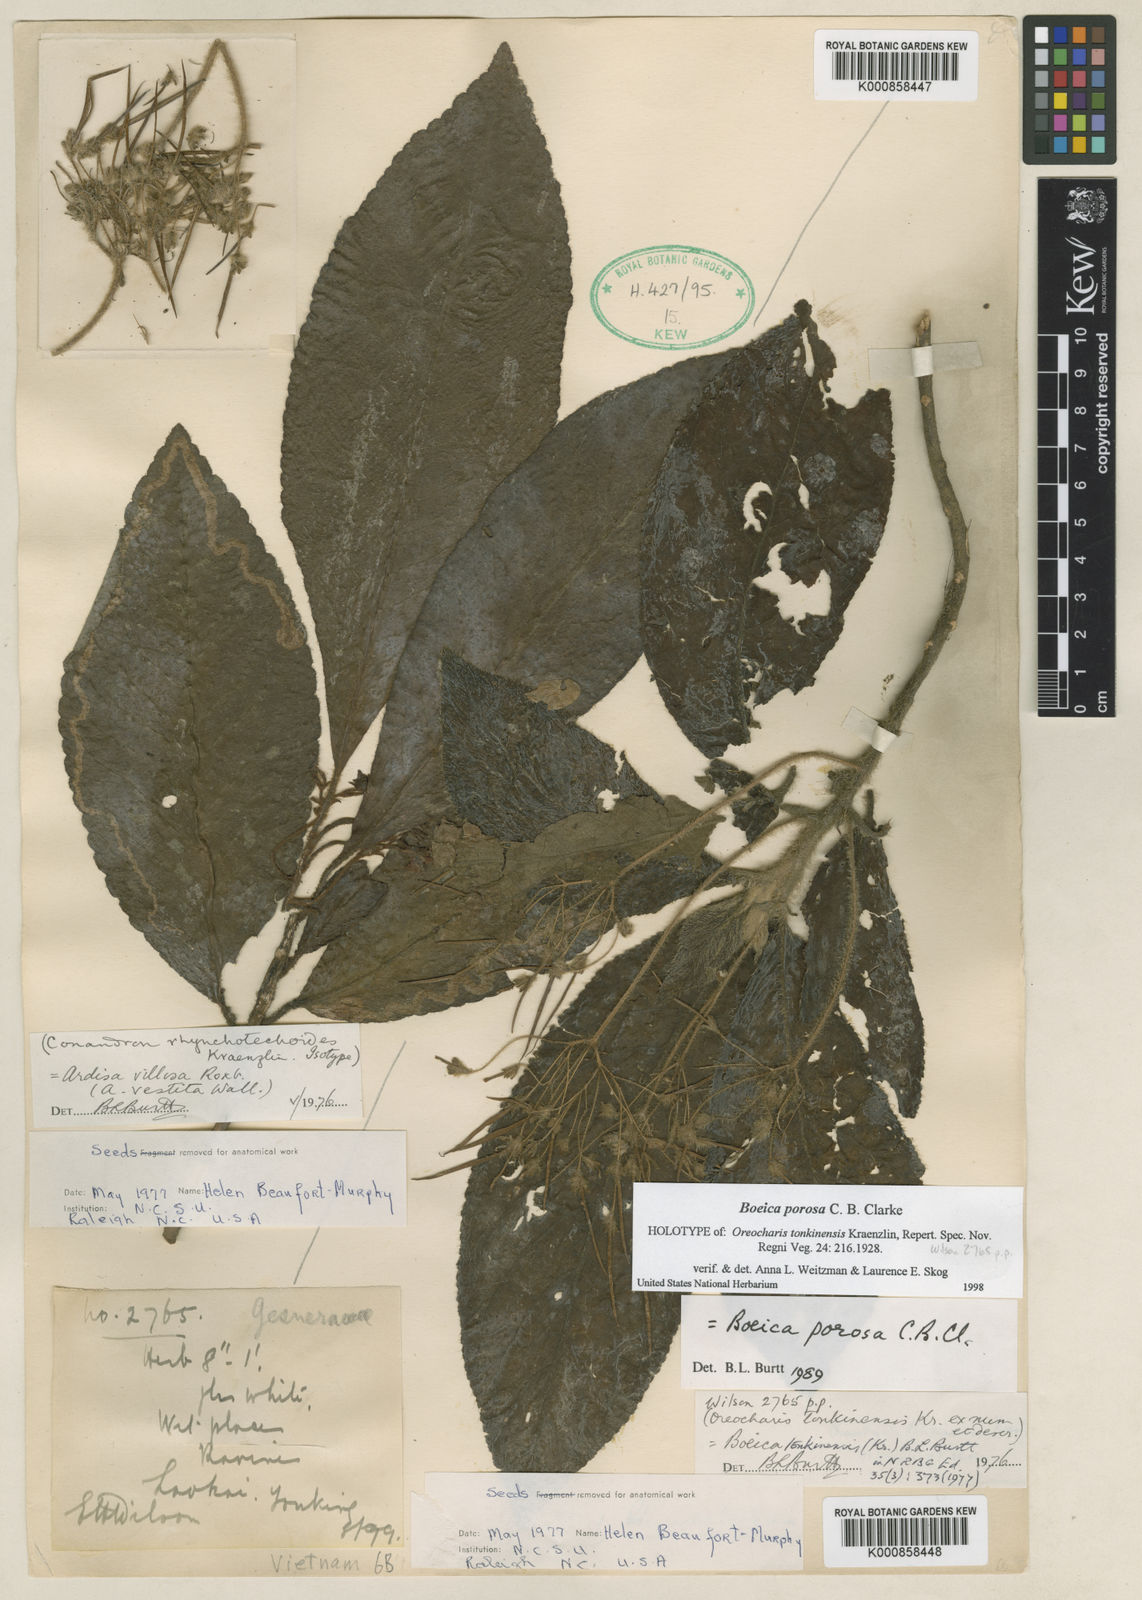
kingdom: Plantae
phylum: Tracheophyta
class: Magnoliopsida
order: Lamiales
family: Gesneriaceae
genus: Boeica
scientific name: Boeica porosa
